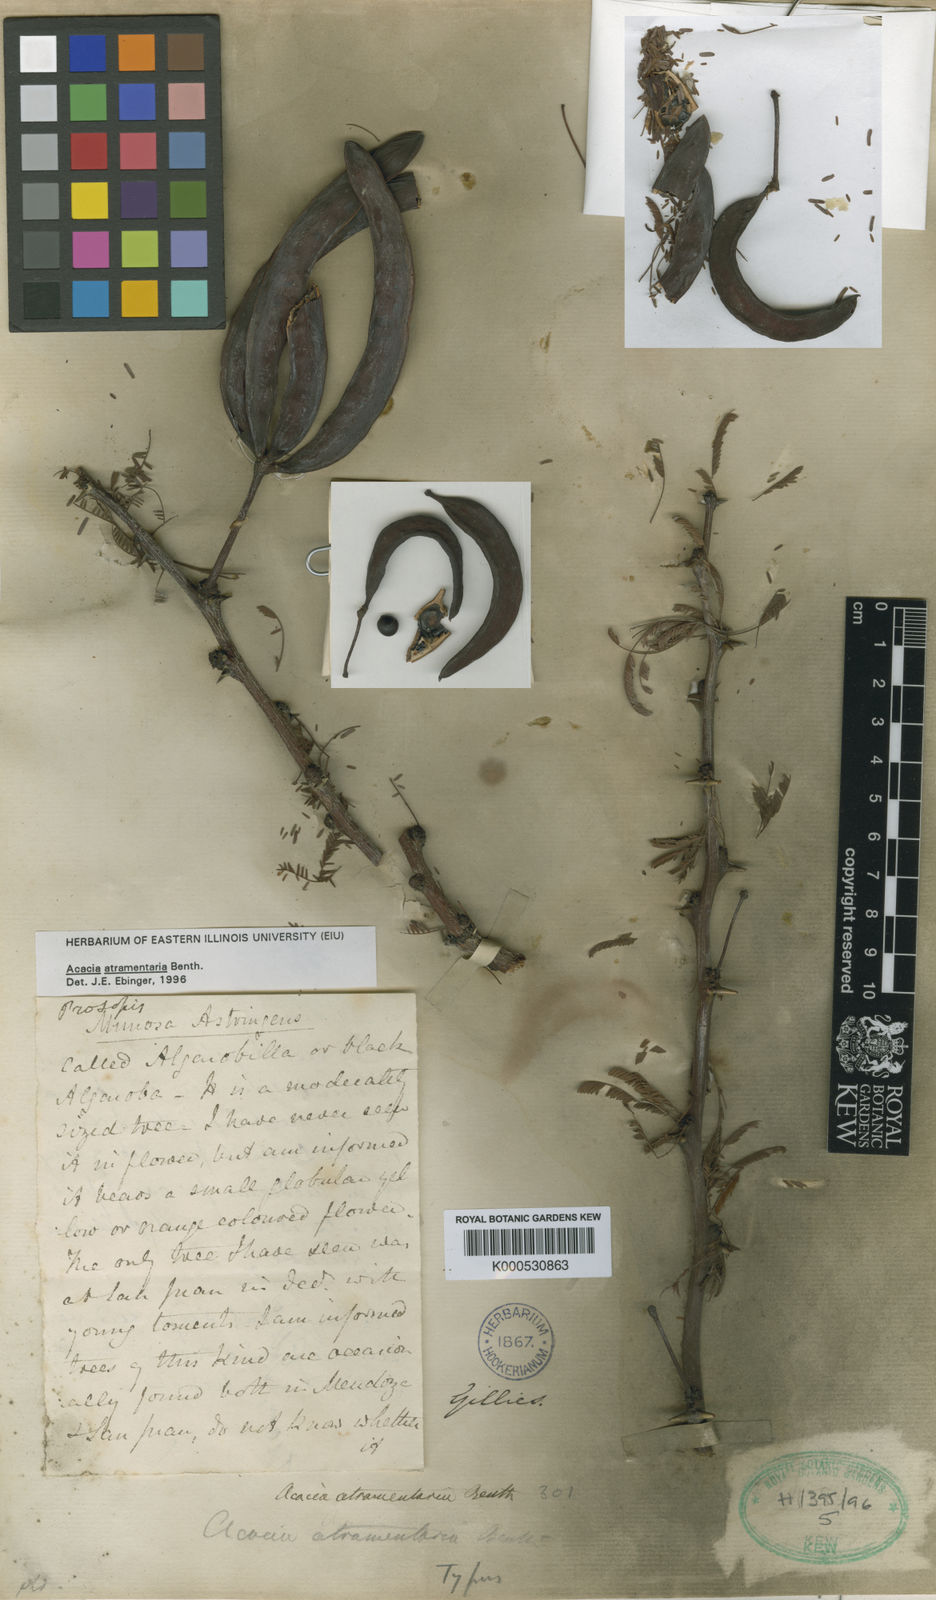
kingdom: Plantae
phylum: Tracheophyta
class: Magnoliopsida
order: Fabales
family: Fabaceae
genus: Vachellia
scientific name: Vachellia astringens
